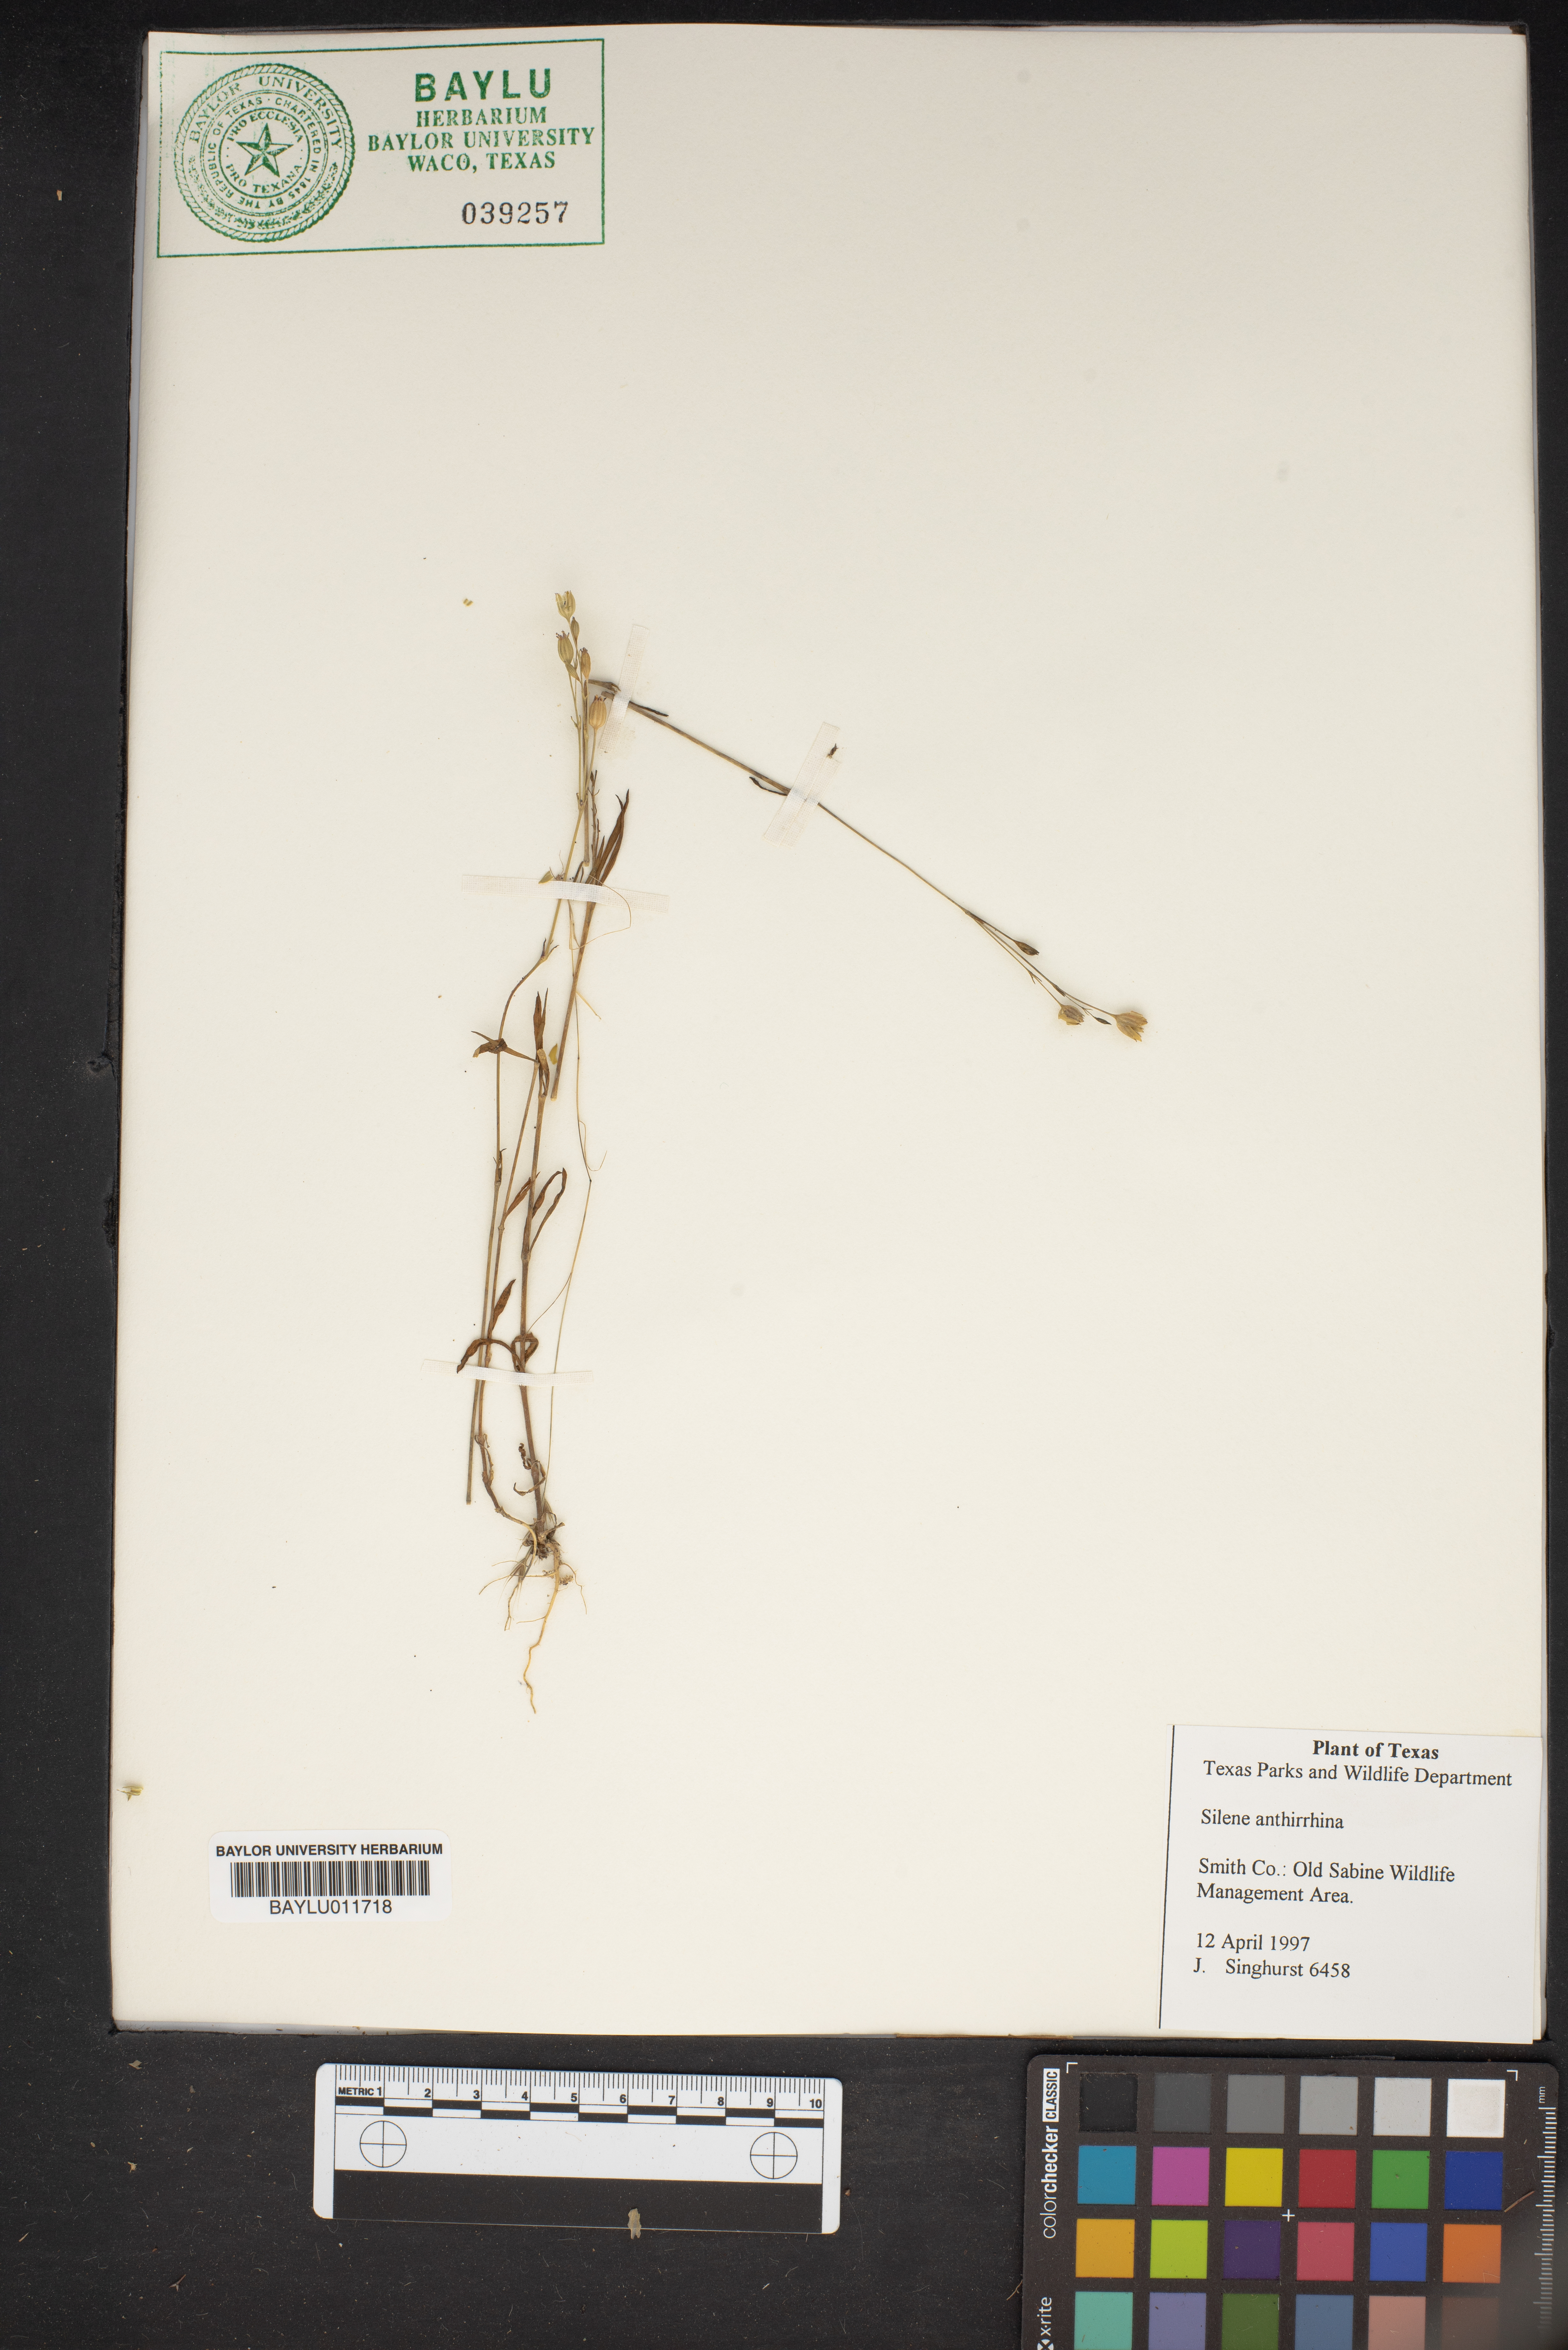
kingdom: Plantae
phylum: Tracheophyta
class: Magnoliopsida
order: Caryophyllales
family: Caryophyllaceae
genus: Silene
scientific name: Silene antirrhina
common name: Sleepy catchfly
